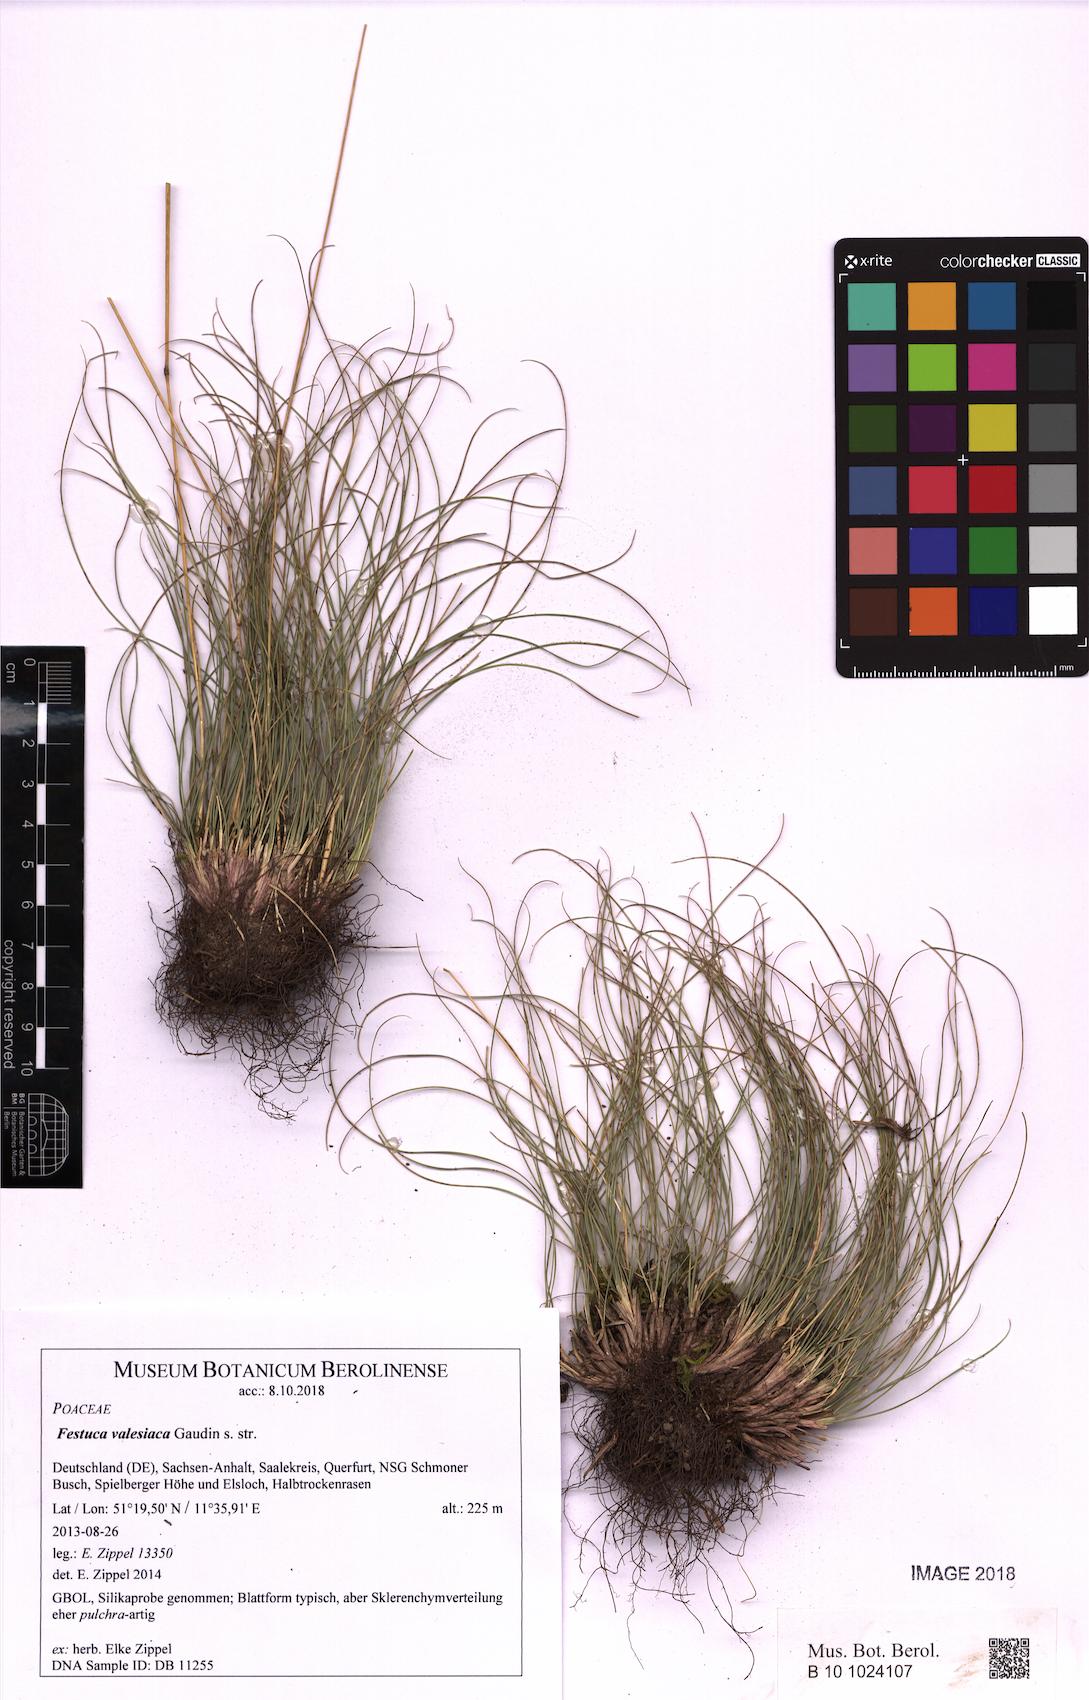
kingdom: Plantae
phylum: Tracheophyta
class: Liliopsida
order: Poales
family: Poaceae
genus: Festuca
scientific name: Festuca valesiaca
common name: Volga fescue
